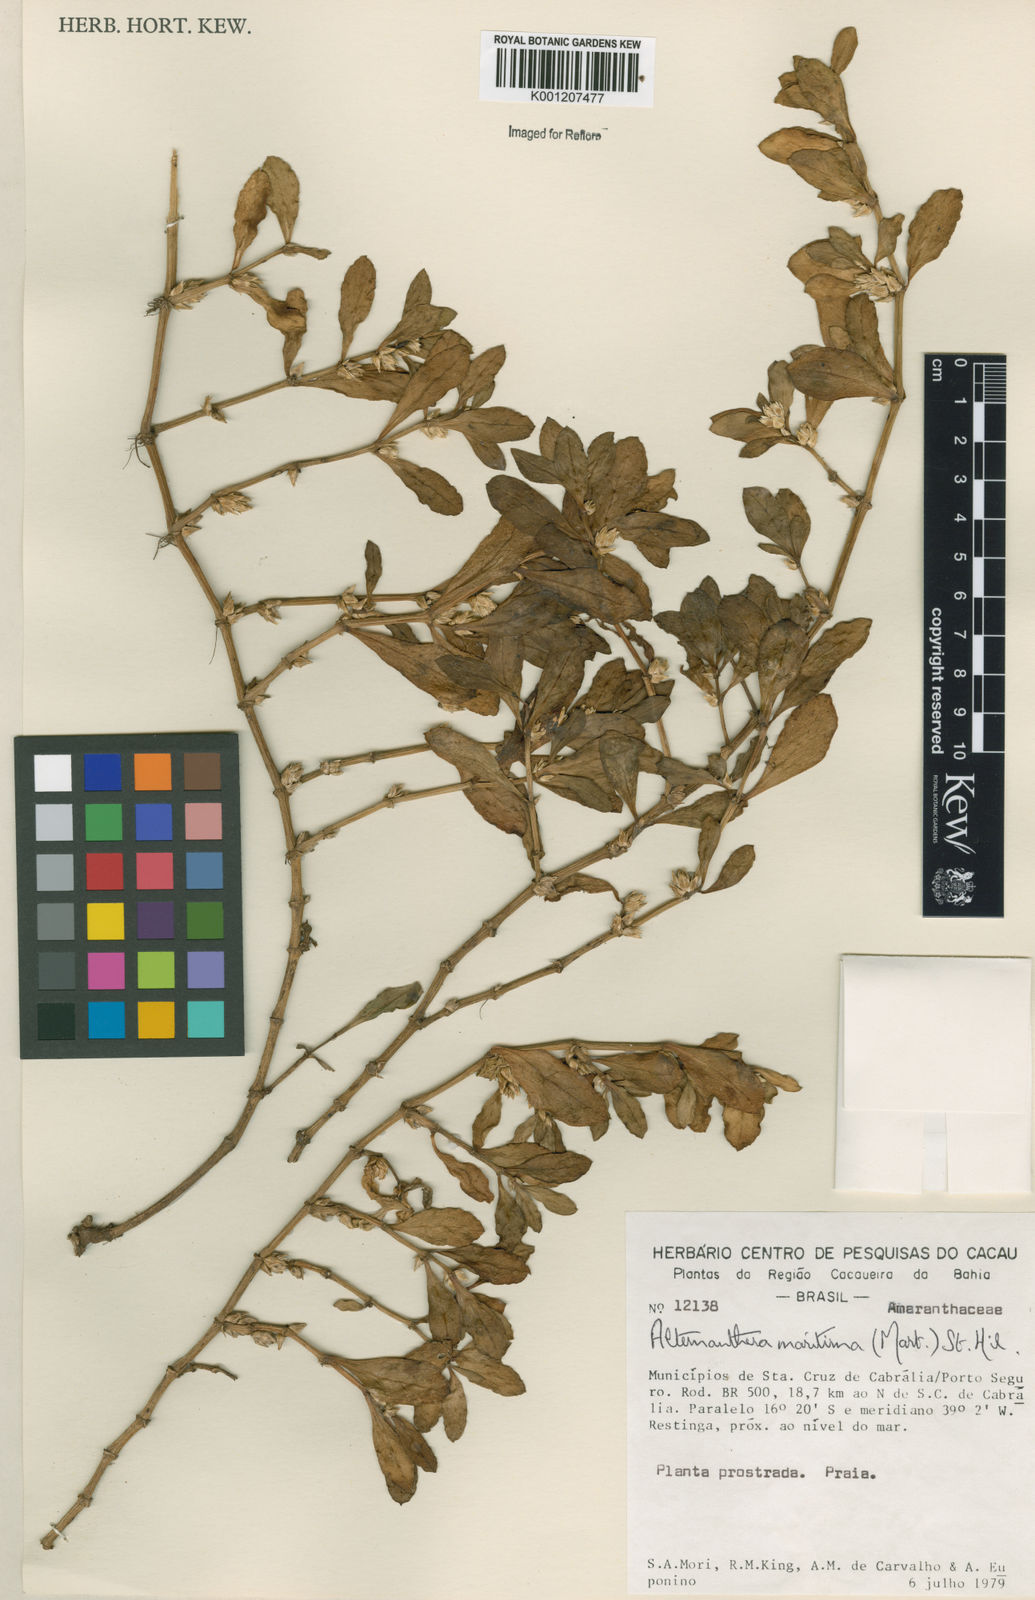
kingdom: Plantae
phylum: Tracheophyta
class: Magnoliopsida
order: Caryophyllales
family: Amaranthaceae
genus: Alternanthera
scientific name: Alternanthera littoralis
